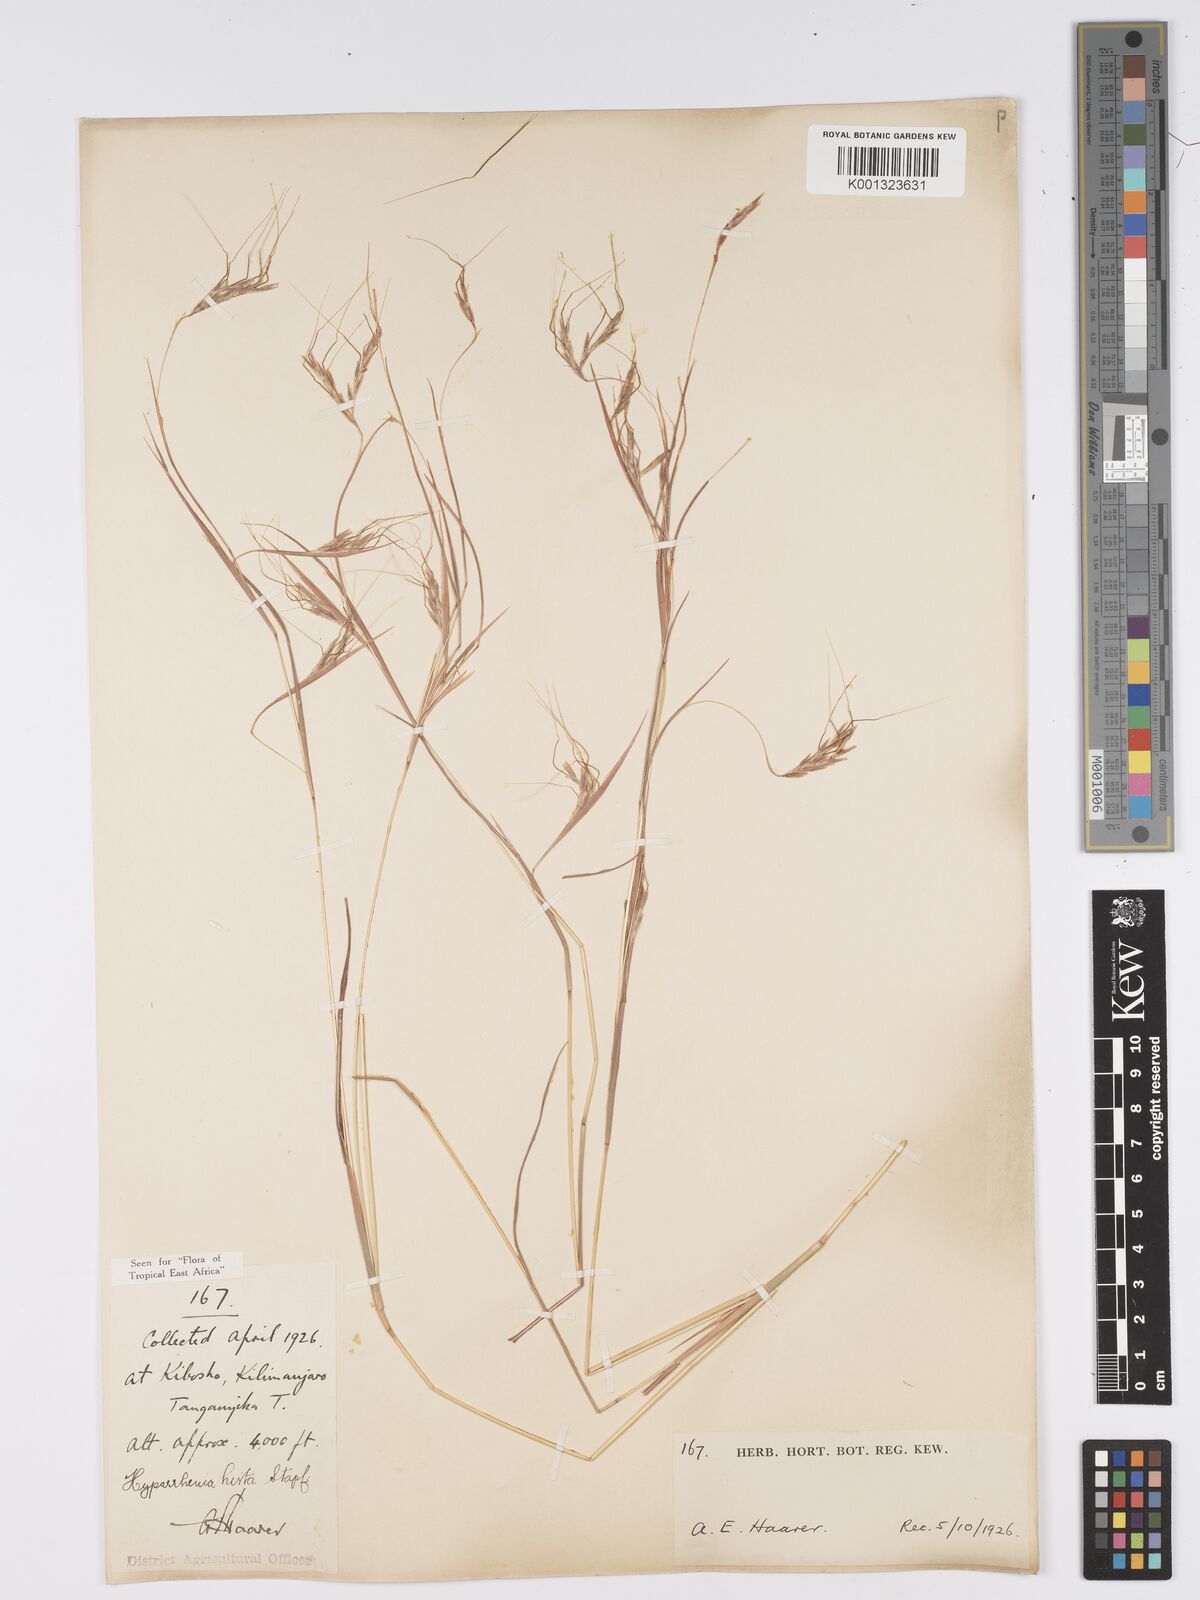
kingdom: Plantae
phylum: Tracheophyta
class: Liliopsida
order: Poales
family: Poaceae
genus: Hyparrhenia
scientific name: Hyparrhenia hirta
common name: Thatching grass
